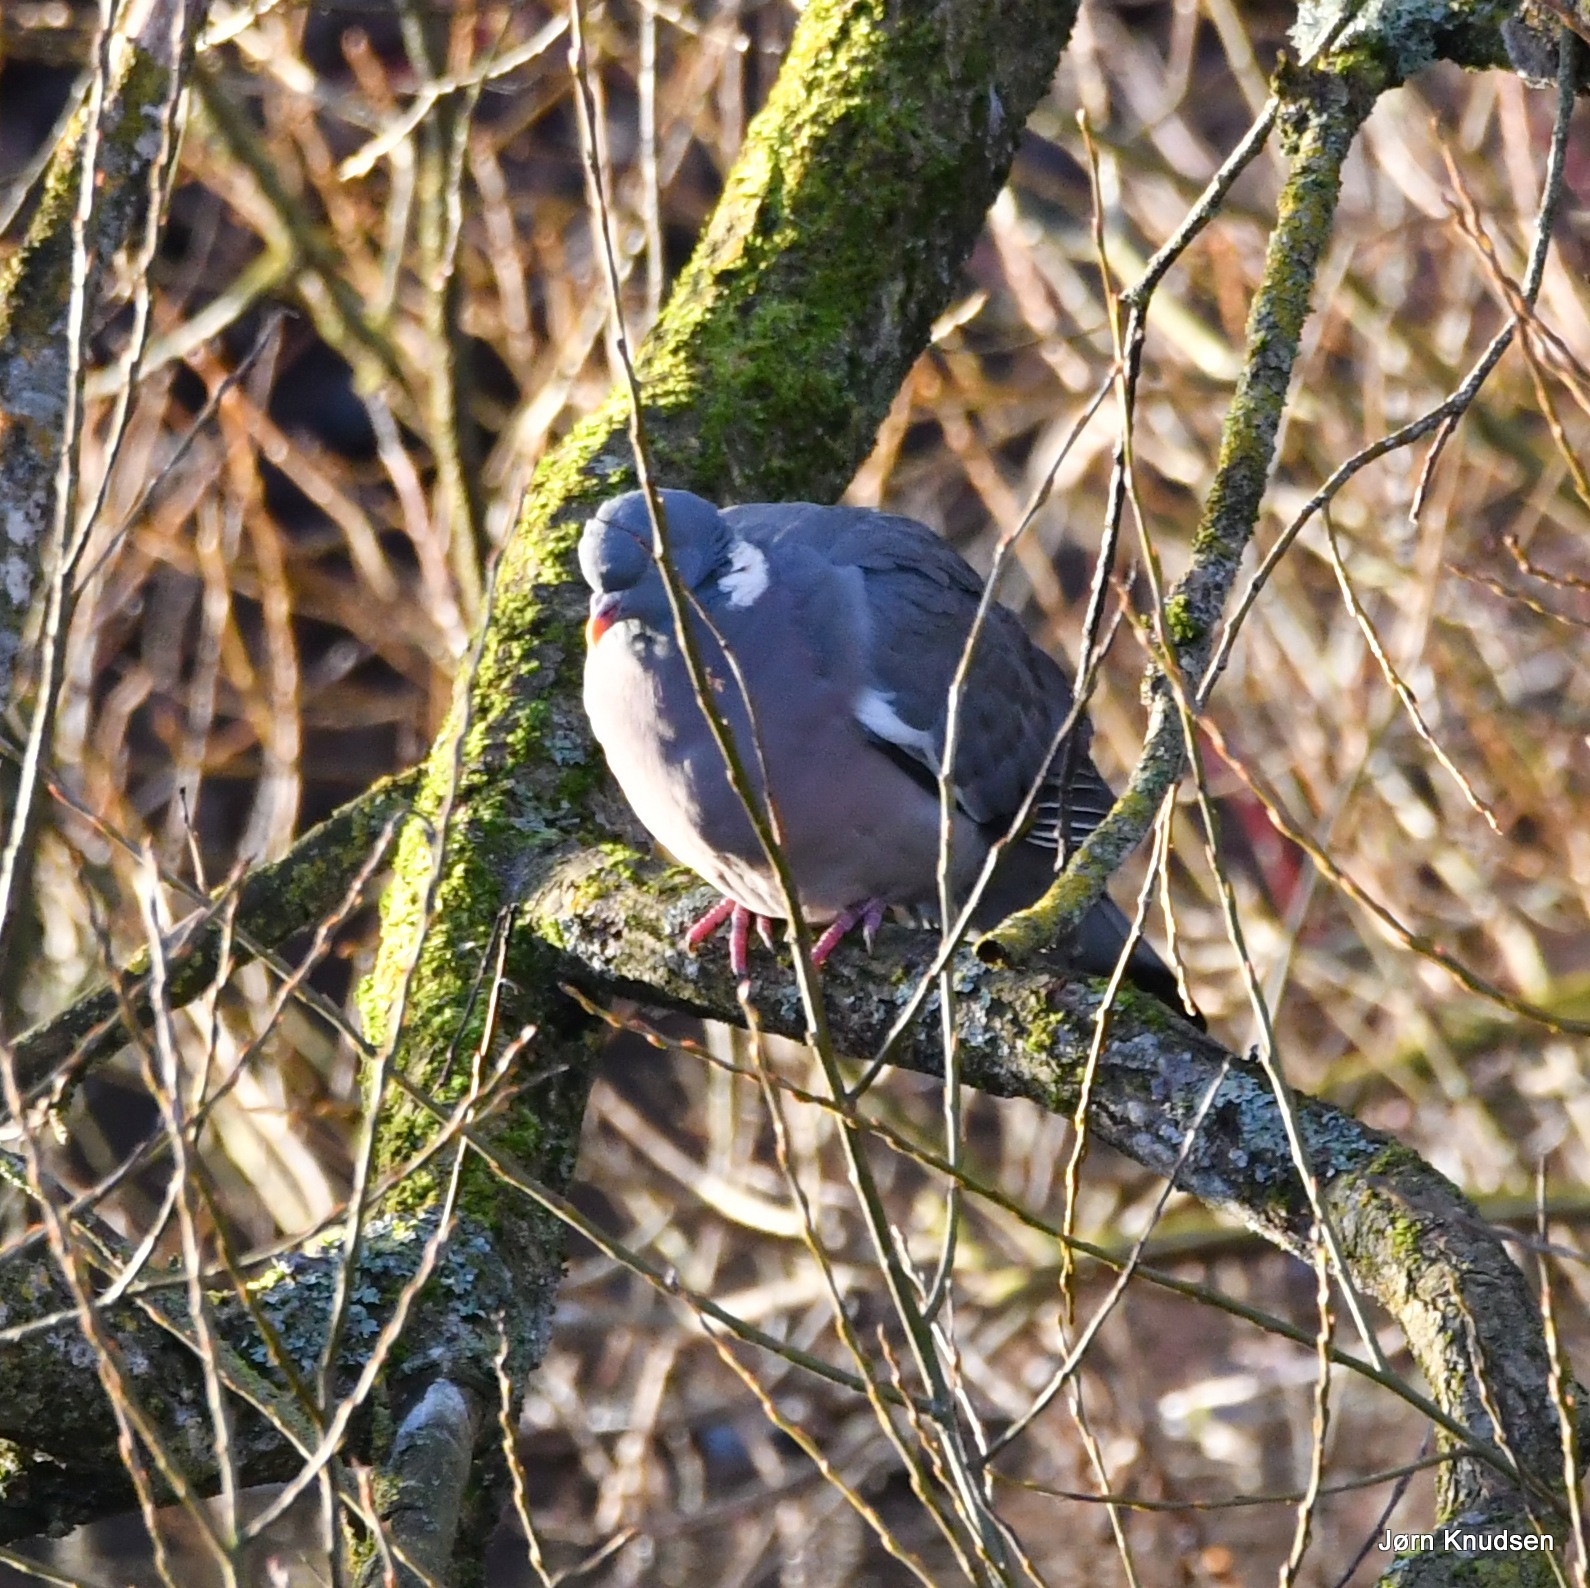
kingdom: Animalia
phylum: Chordata
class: Aves
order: Columbiformes
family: Columbidae
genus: Columba
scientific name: Columba palumbus
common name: Ringdue
